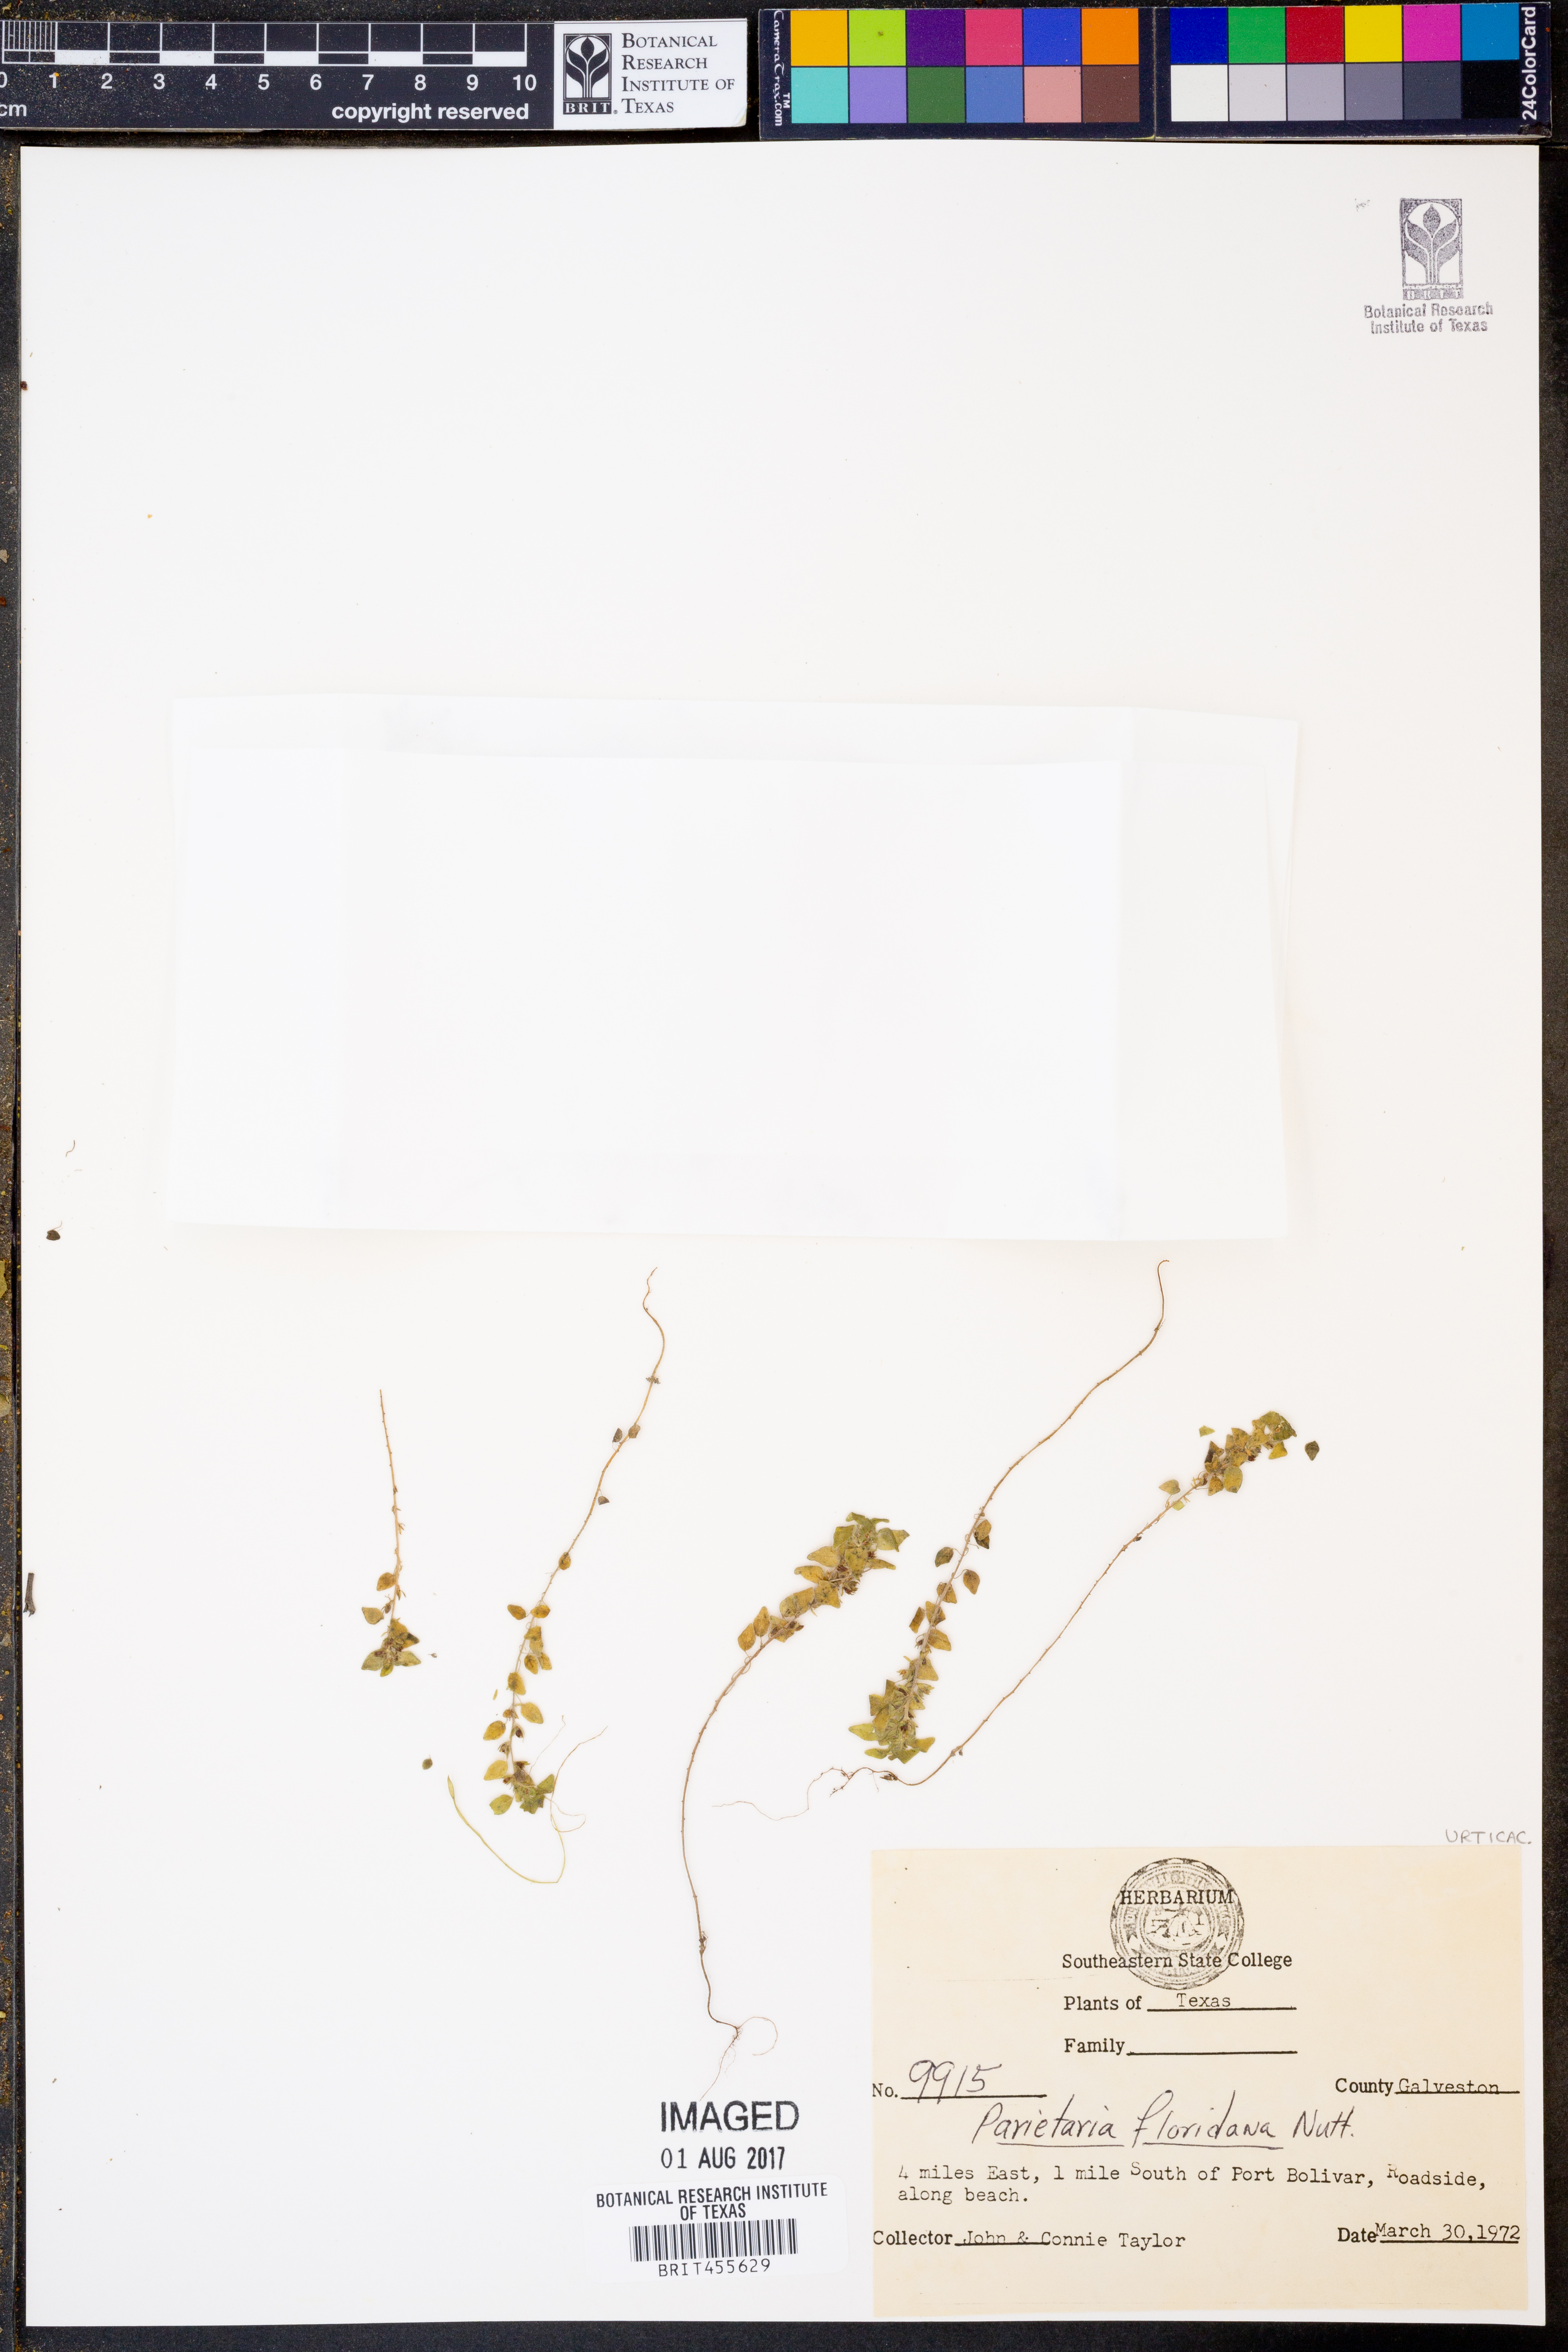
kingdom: Plantae
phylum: Tracheophyta
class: Magnoliopsida
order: Rosales
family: Urticaceae
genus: Parietaria
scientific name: Parietaria floridana
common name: Florida pellitory
